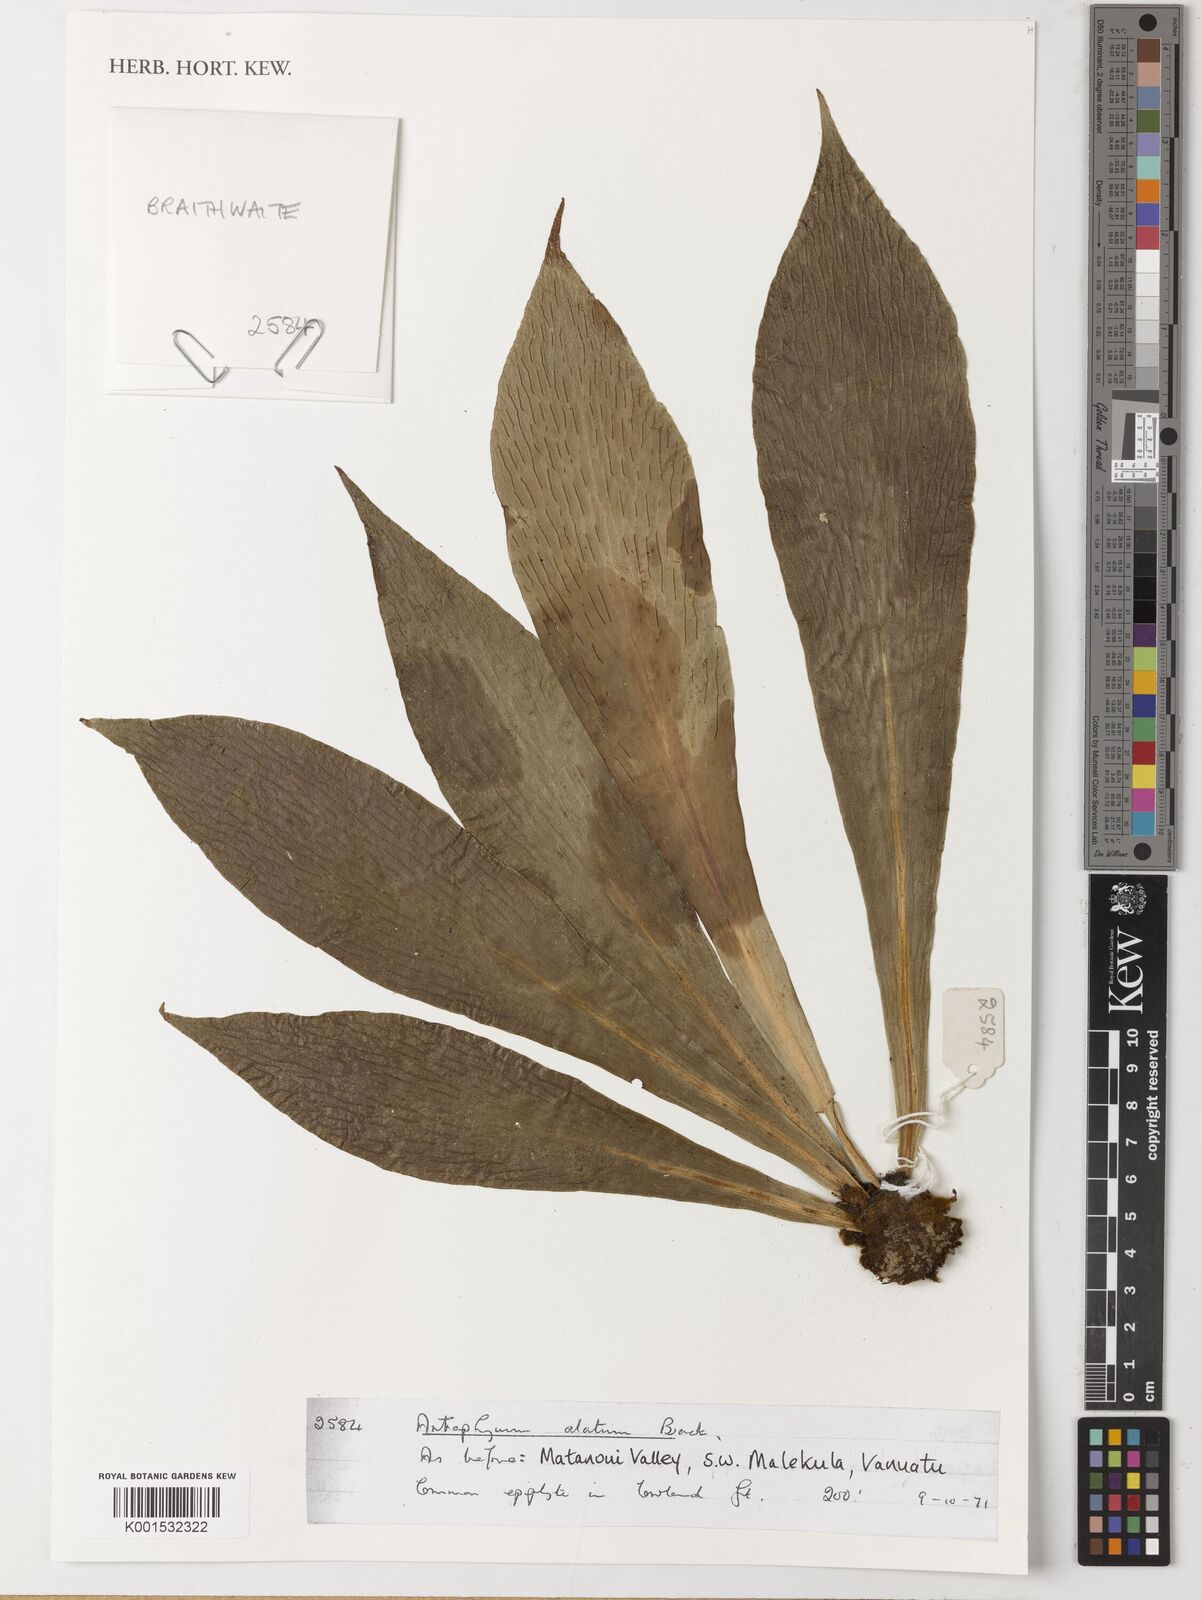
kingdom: Plantae
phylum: Tracheophyta
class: Polypodiopsida
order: Polypodiales
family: Pteridaceae
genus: Antrophyum
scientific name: Antrophyum callifolium
